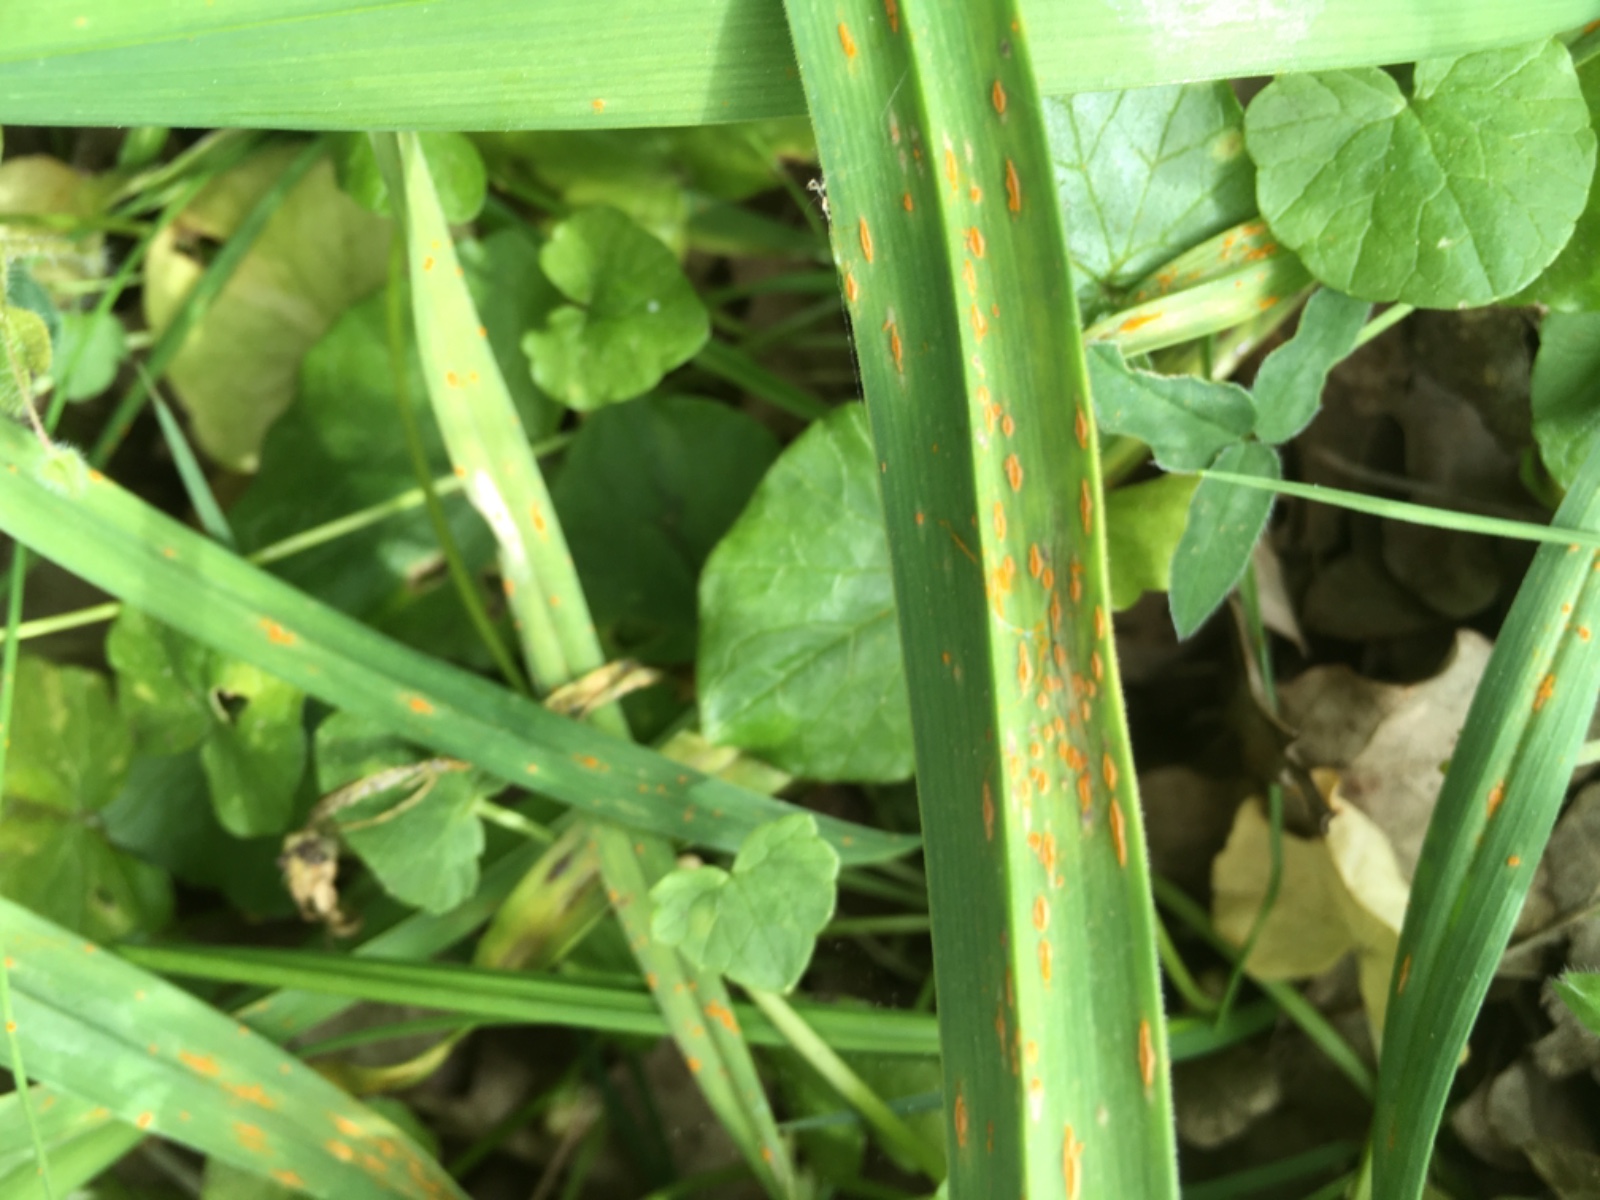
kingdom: Fungi
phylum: Basidiomycota
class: Pucciniomycetes
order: Pucciniales
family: Pucciniaceae
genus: Puccinia
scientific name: Puccinia porri
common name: Allium rust
